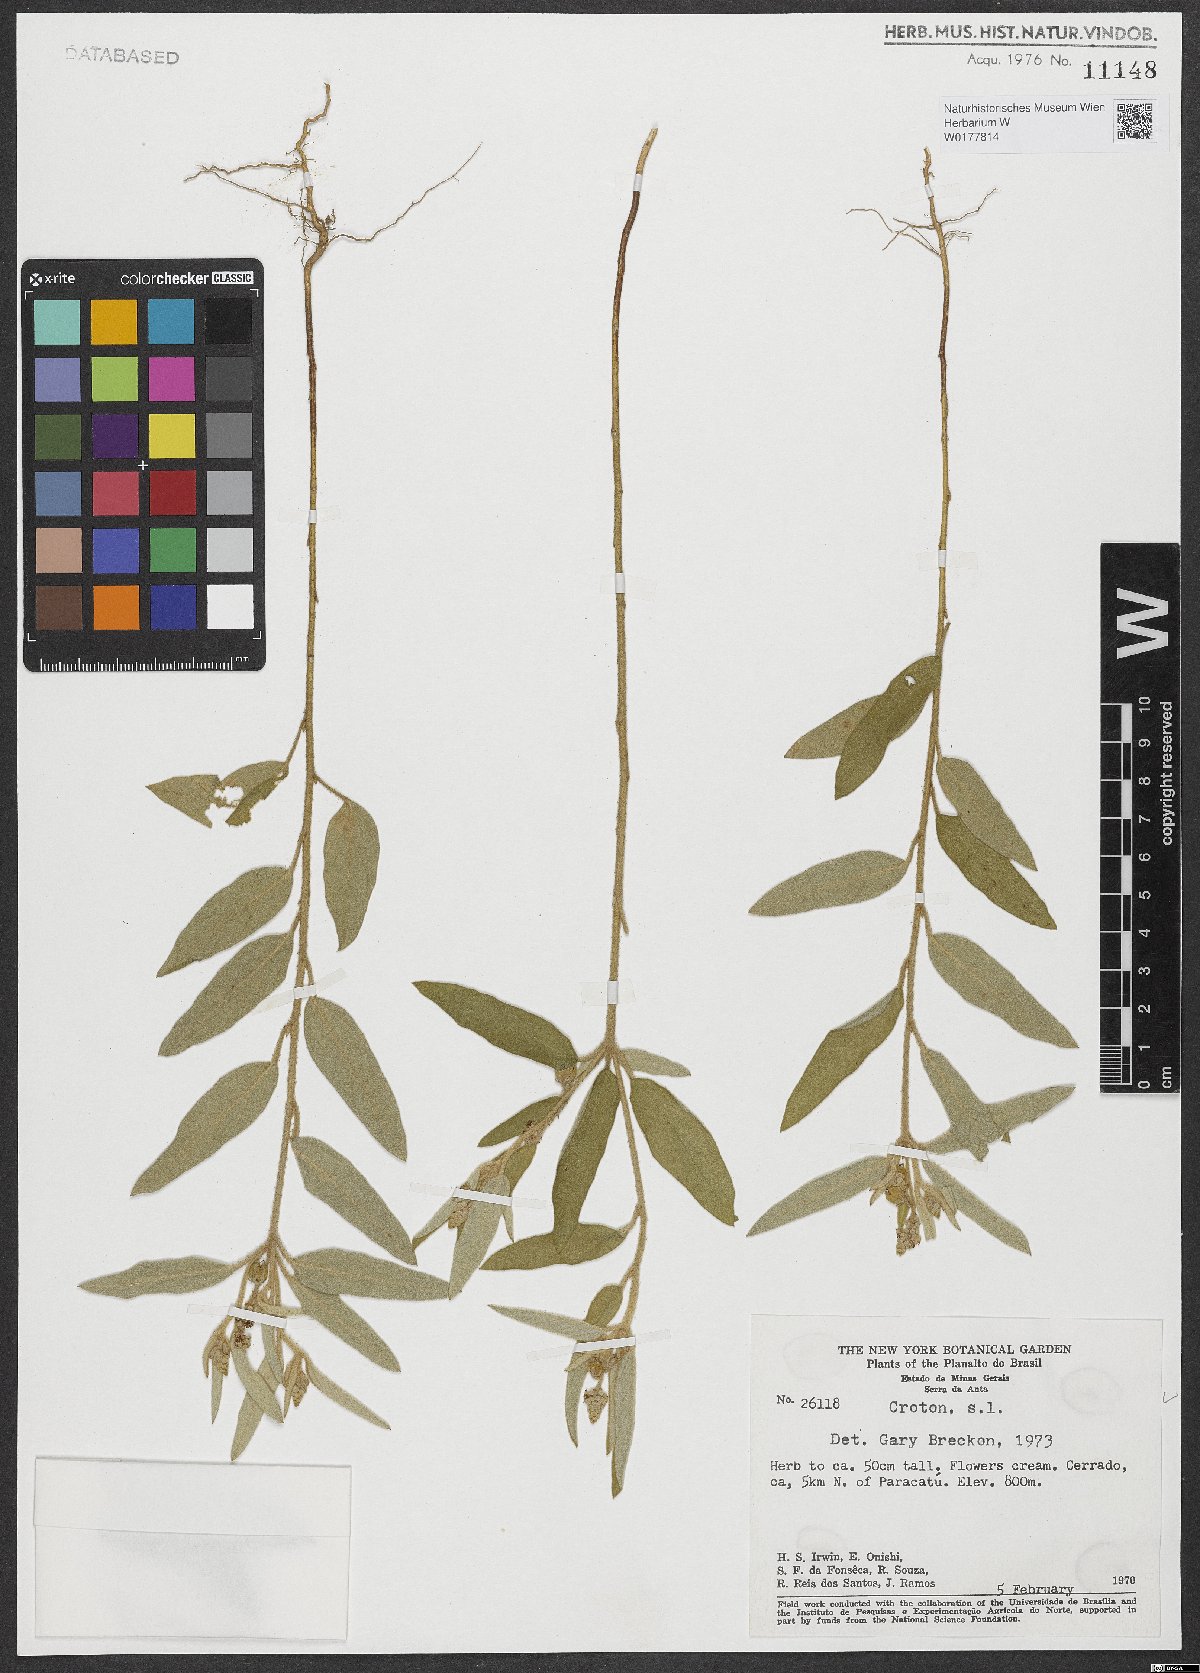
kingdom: Plantae
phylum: Tracheophyta
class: Magnoliopsida
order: Malpighiales
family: Euphorbiaceae
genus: Croton
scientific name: Croton
